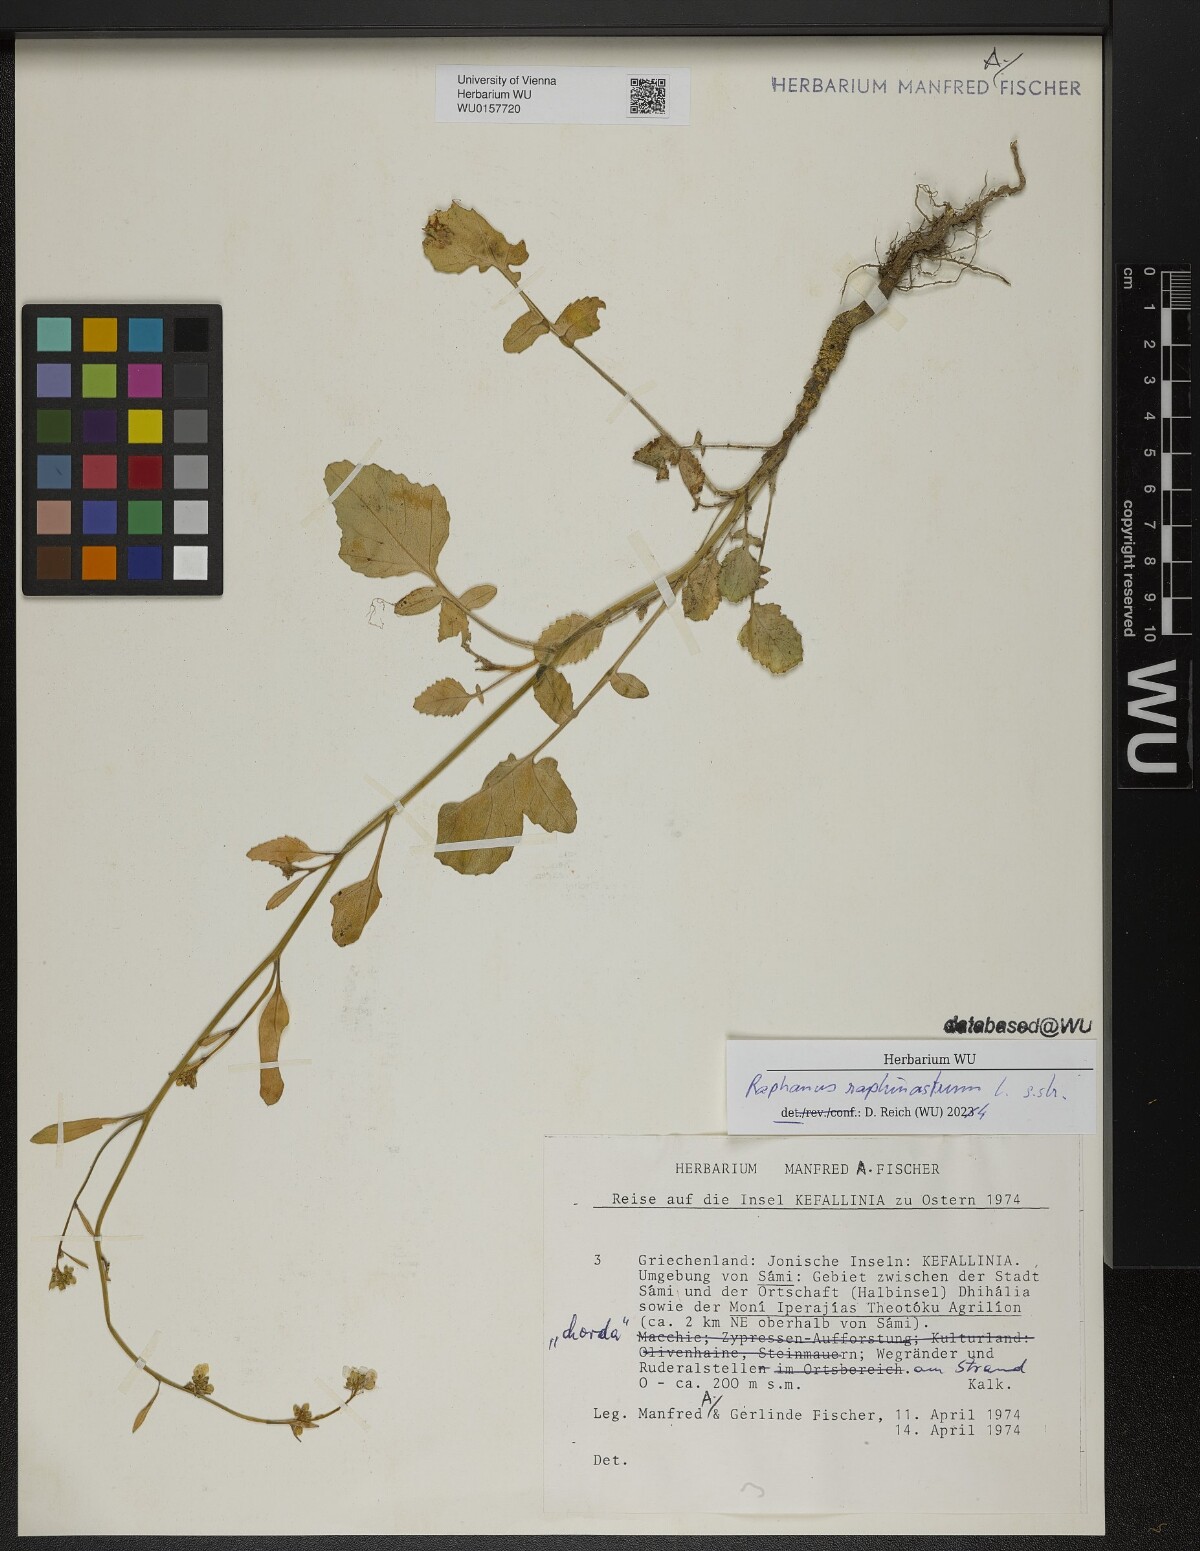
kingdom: Plantae
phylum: Tracheophyta
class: Magnoliopsida
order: Brassicales
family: Brassicaceae
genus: Raphanus
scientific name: Raphanus raphanistrum
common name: Wild radish
